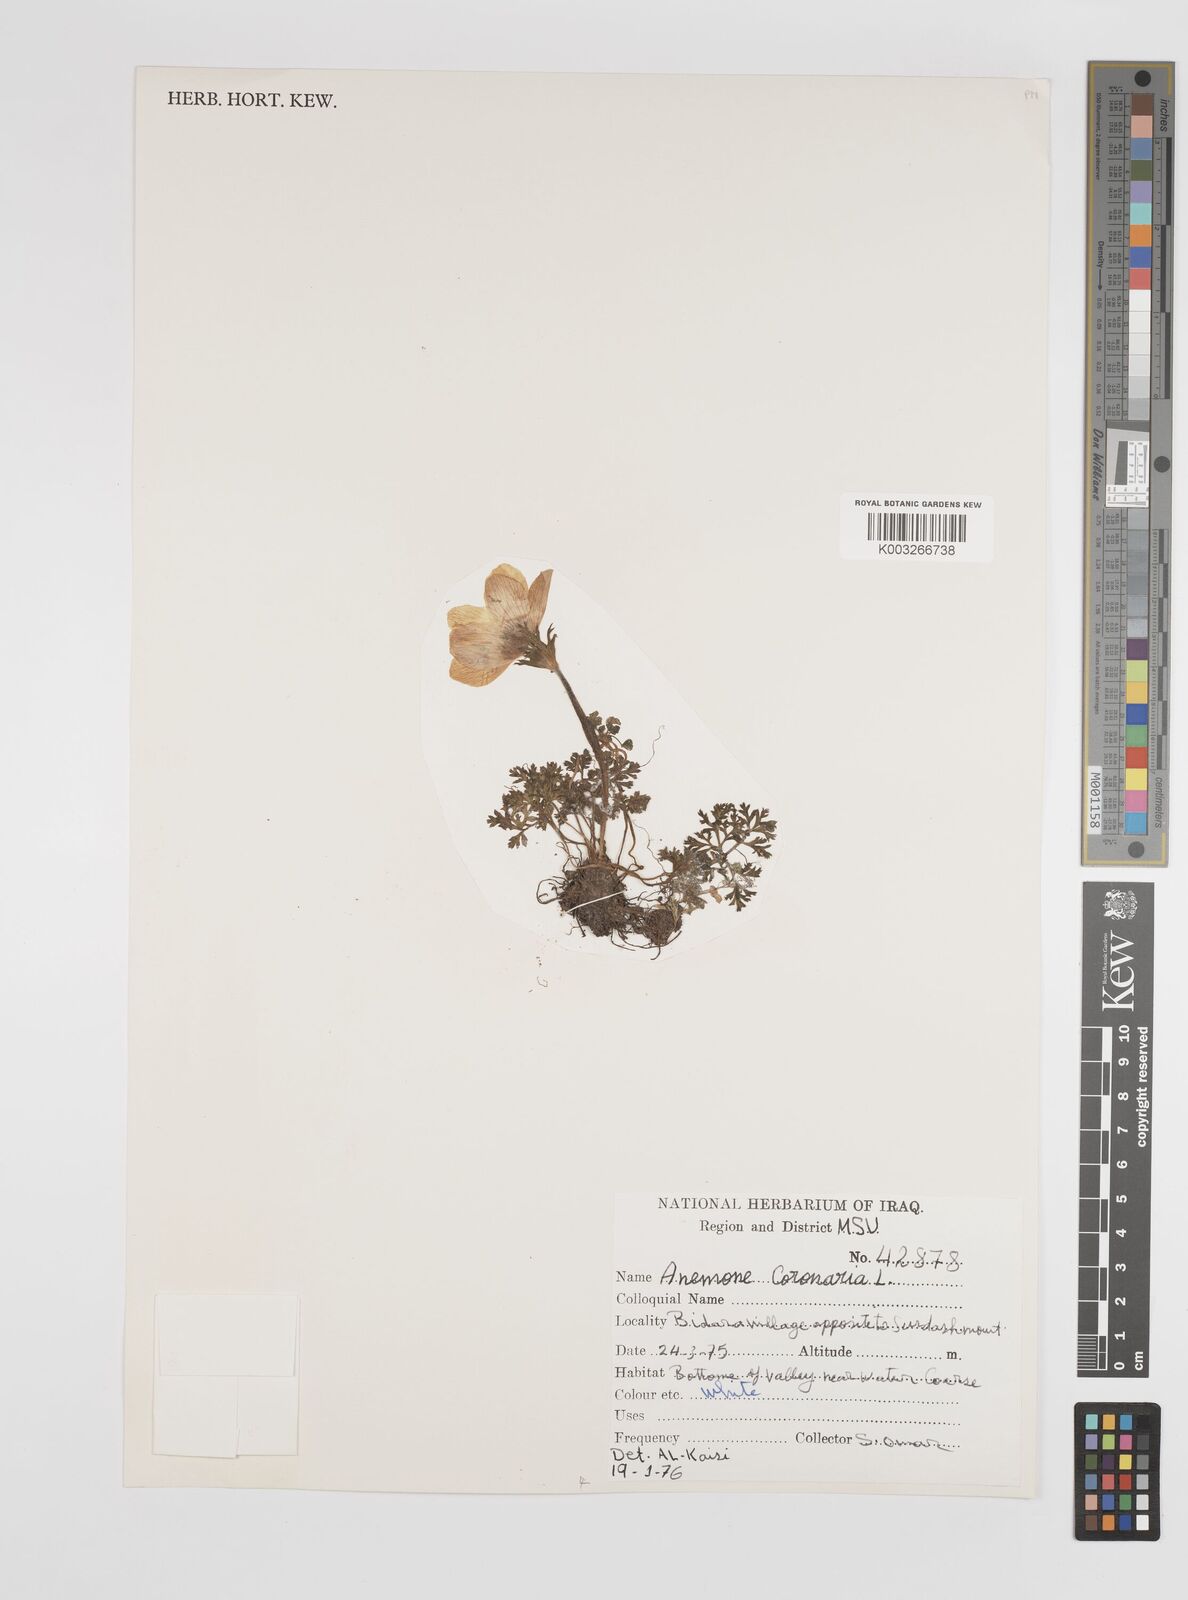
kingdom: Plantae
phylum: Tracheophyta
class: Magnoliopsida
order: Ranunculales
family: Ranunculaceae
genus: Anemone
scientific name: Anemone coronaria
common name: Poppy anemone
